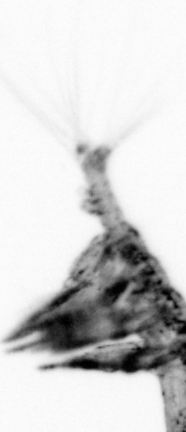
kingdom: Animalia
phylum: Arthropoda
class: Copepoda
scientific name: Copepoda
